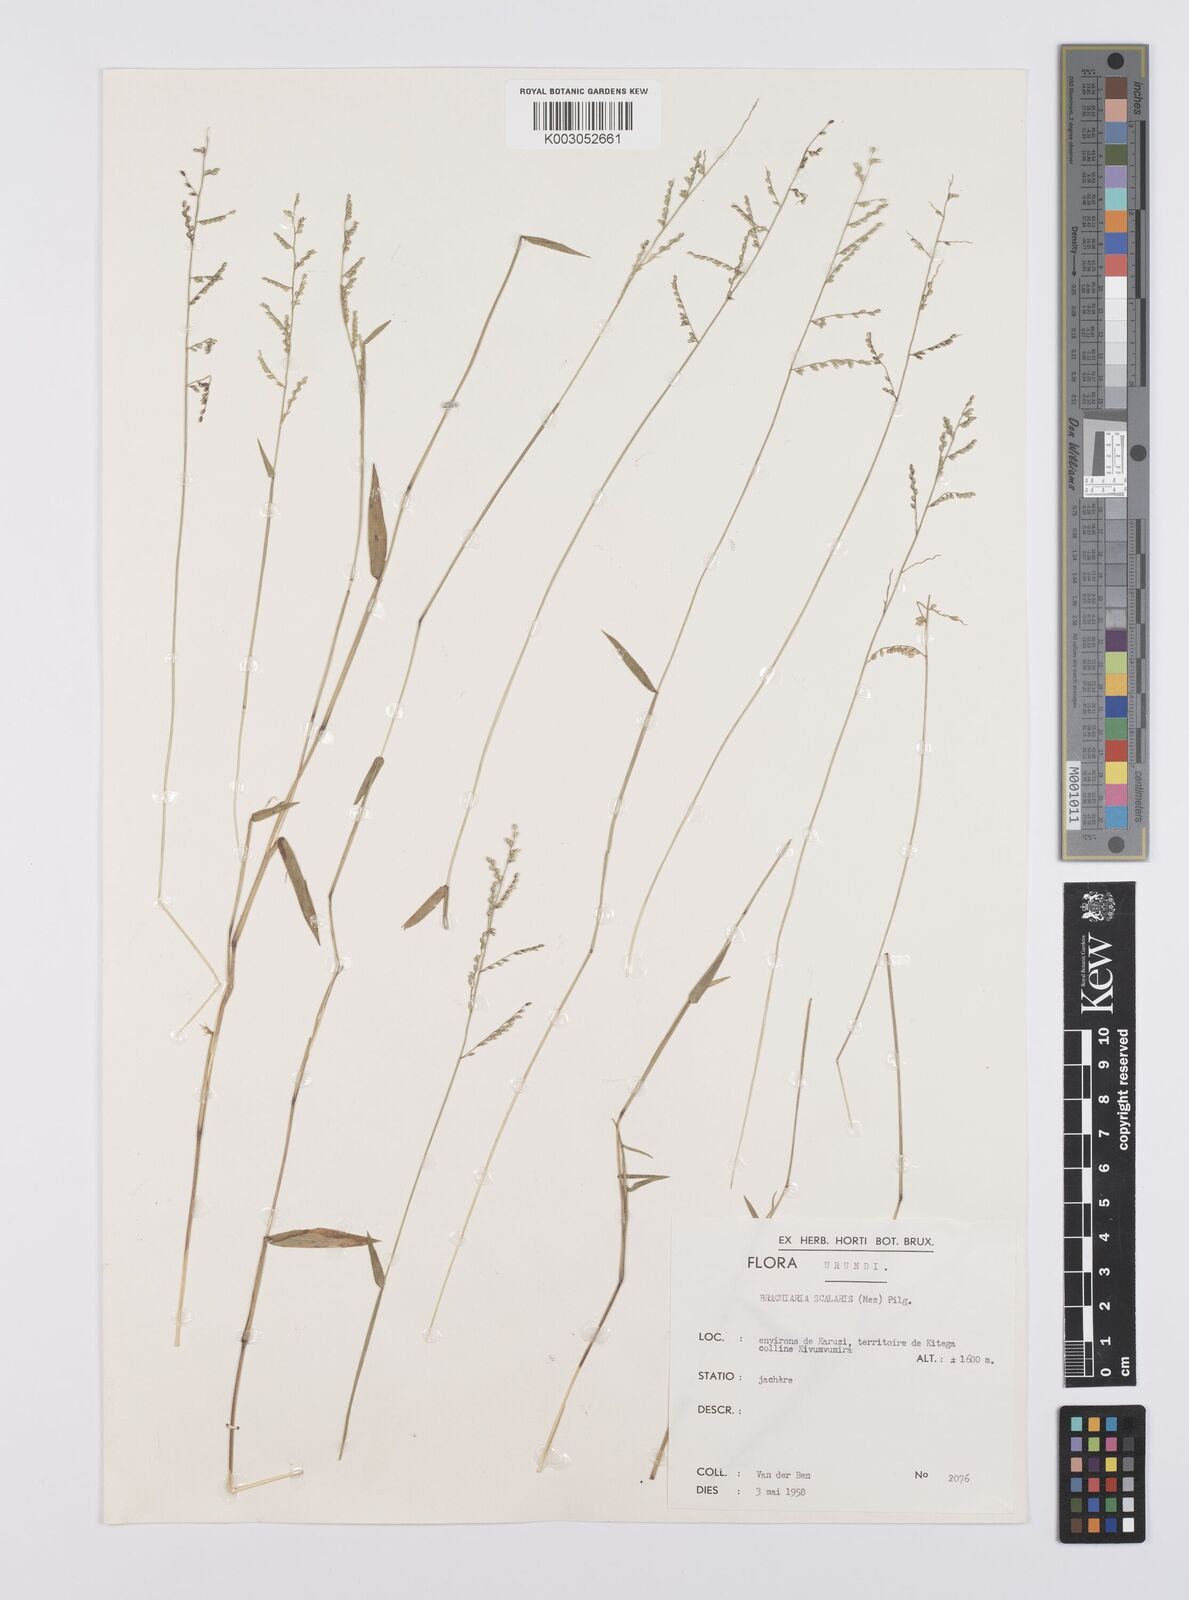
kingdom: Plantae
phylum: Tracheophyta
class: Liliopsida
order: Poales
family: Poaceae
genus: Urochloa
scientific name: Urochloa comata
